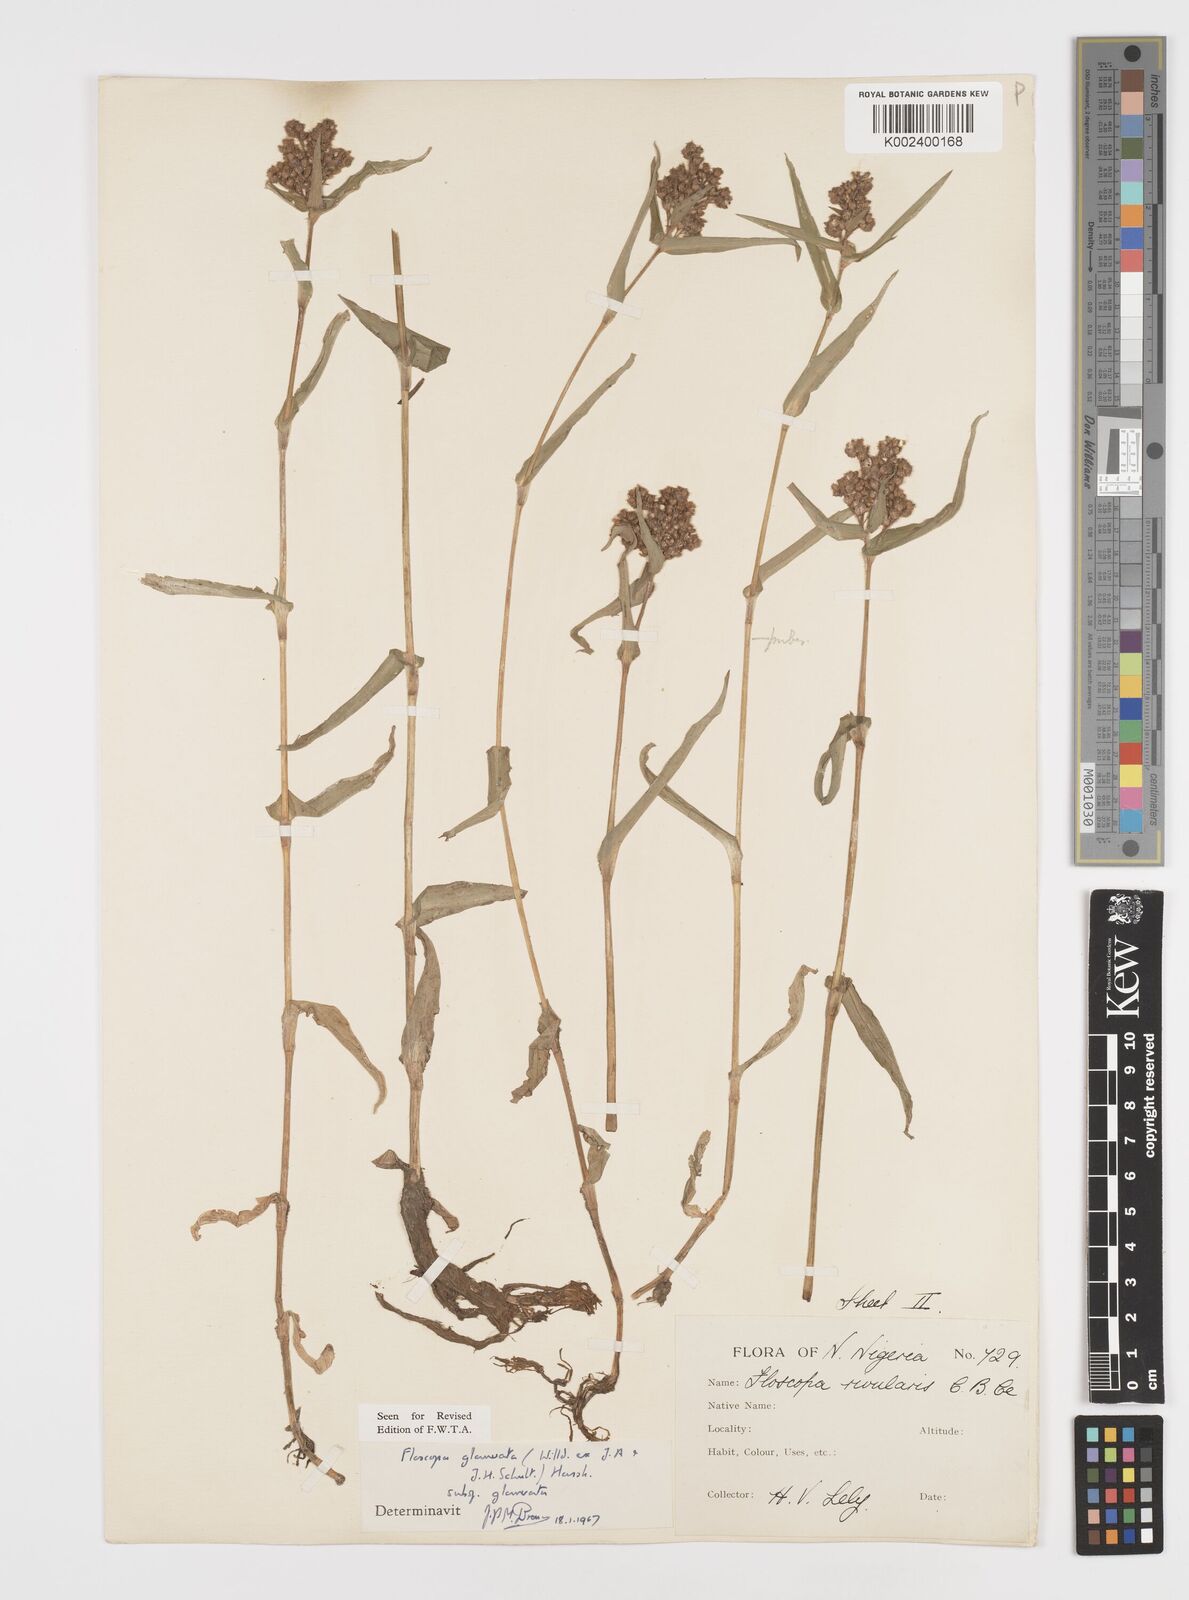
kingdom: Plantae
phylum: Tracheophyta
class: Liliopsida
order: Commelinales
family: Commelinaceae
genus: Floscopa
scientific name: Floscopa glomerata
